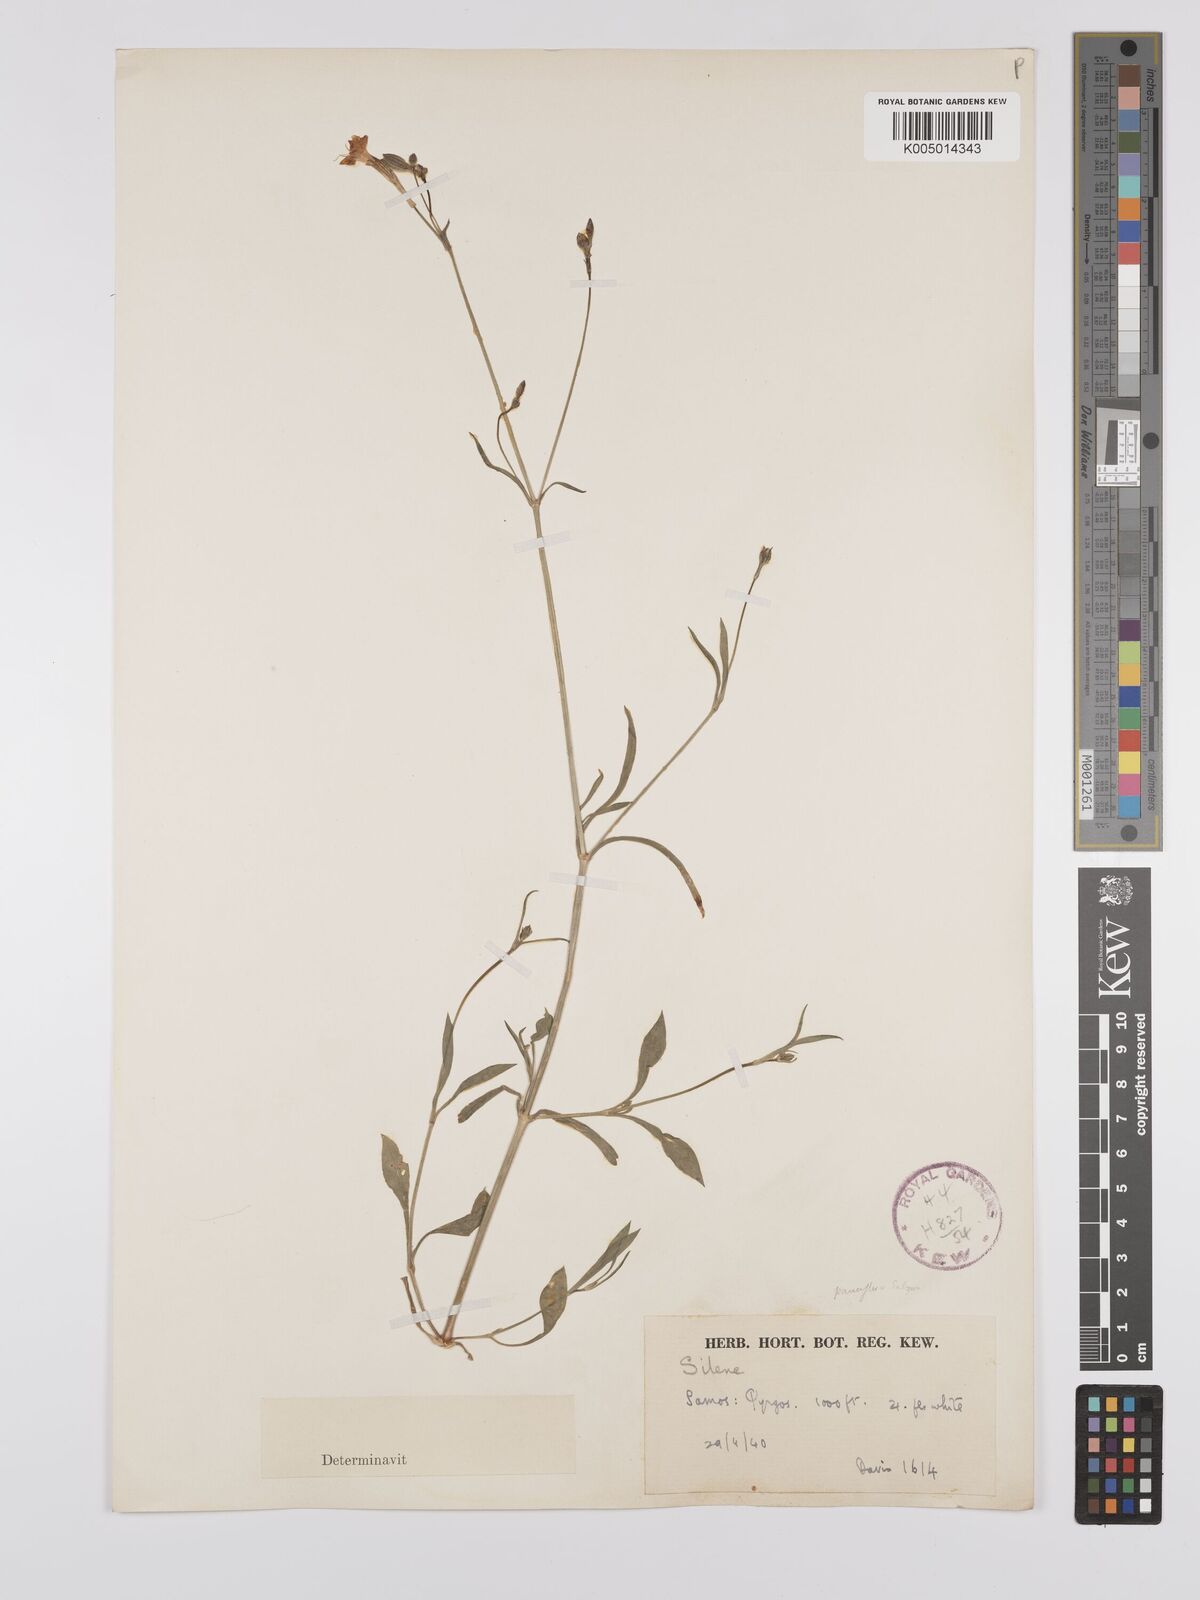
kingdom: Plantae
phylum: Tracheophyta
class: Magnoliopsida
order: Caryophyllales
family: Caryophyllaceae
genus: Silene
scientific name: Silene
